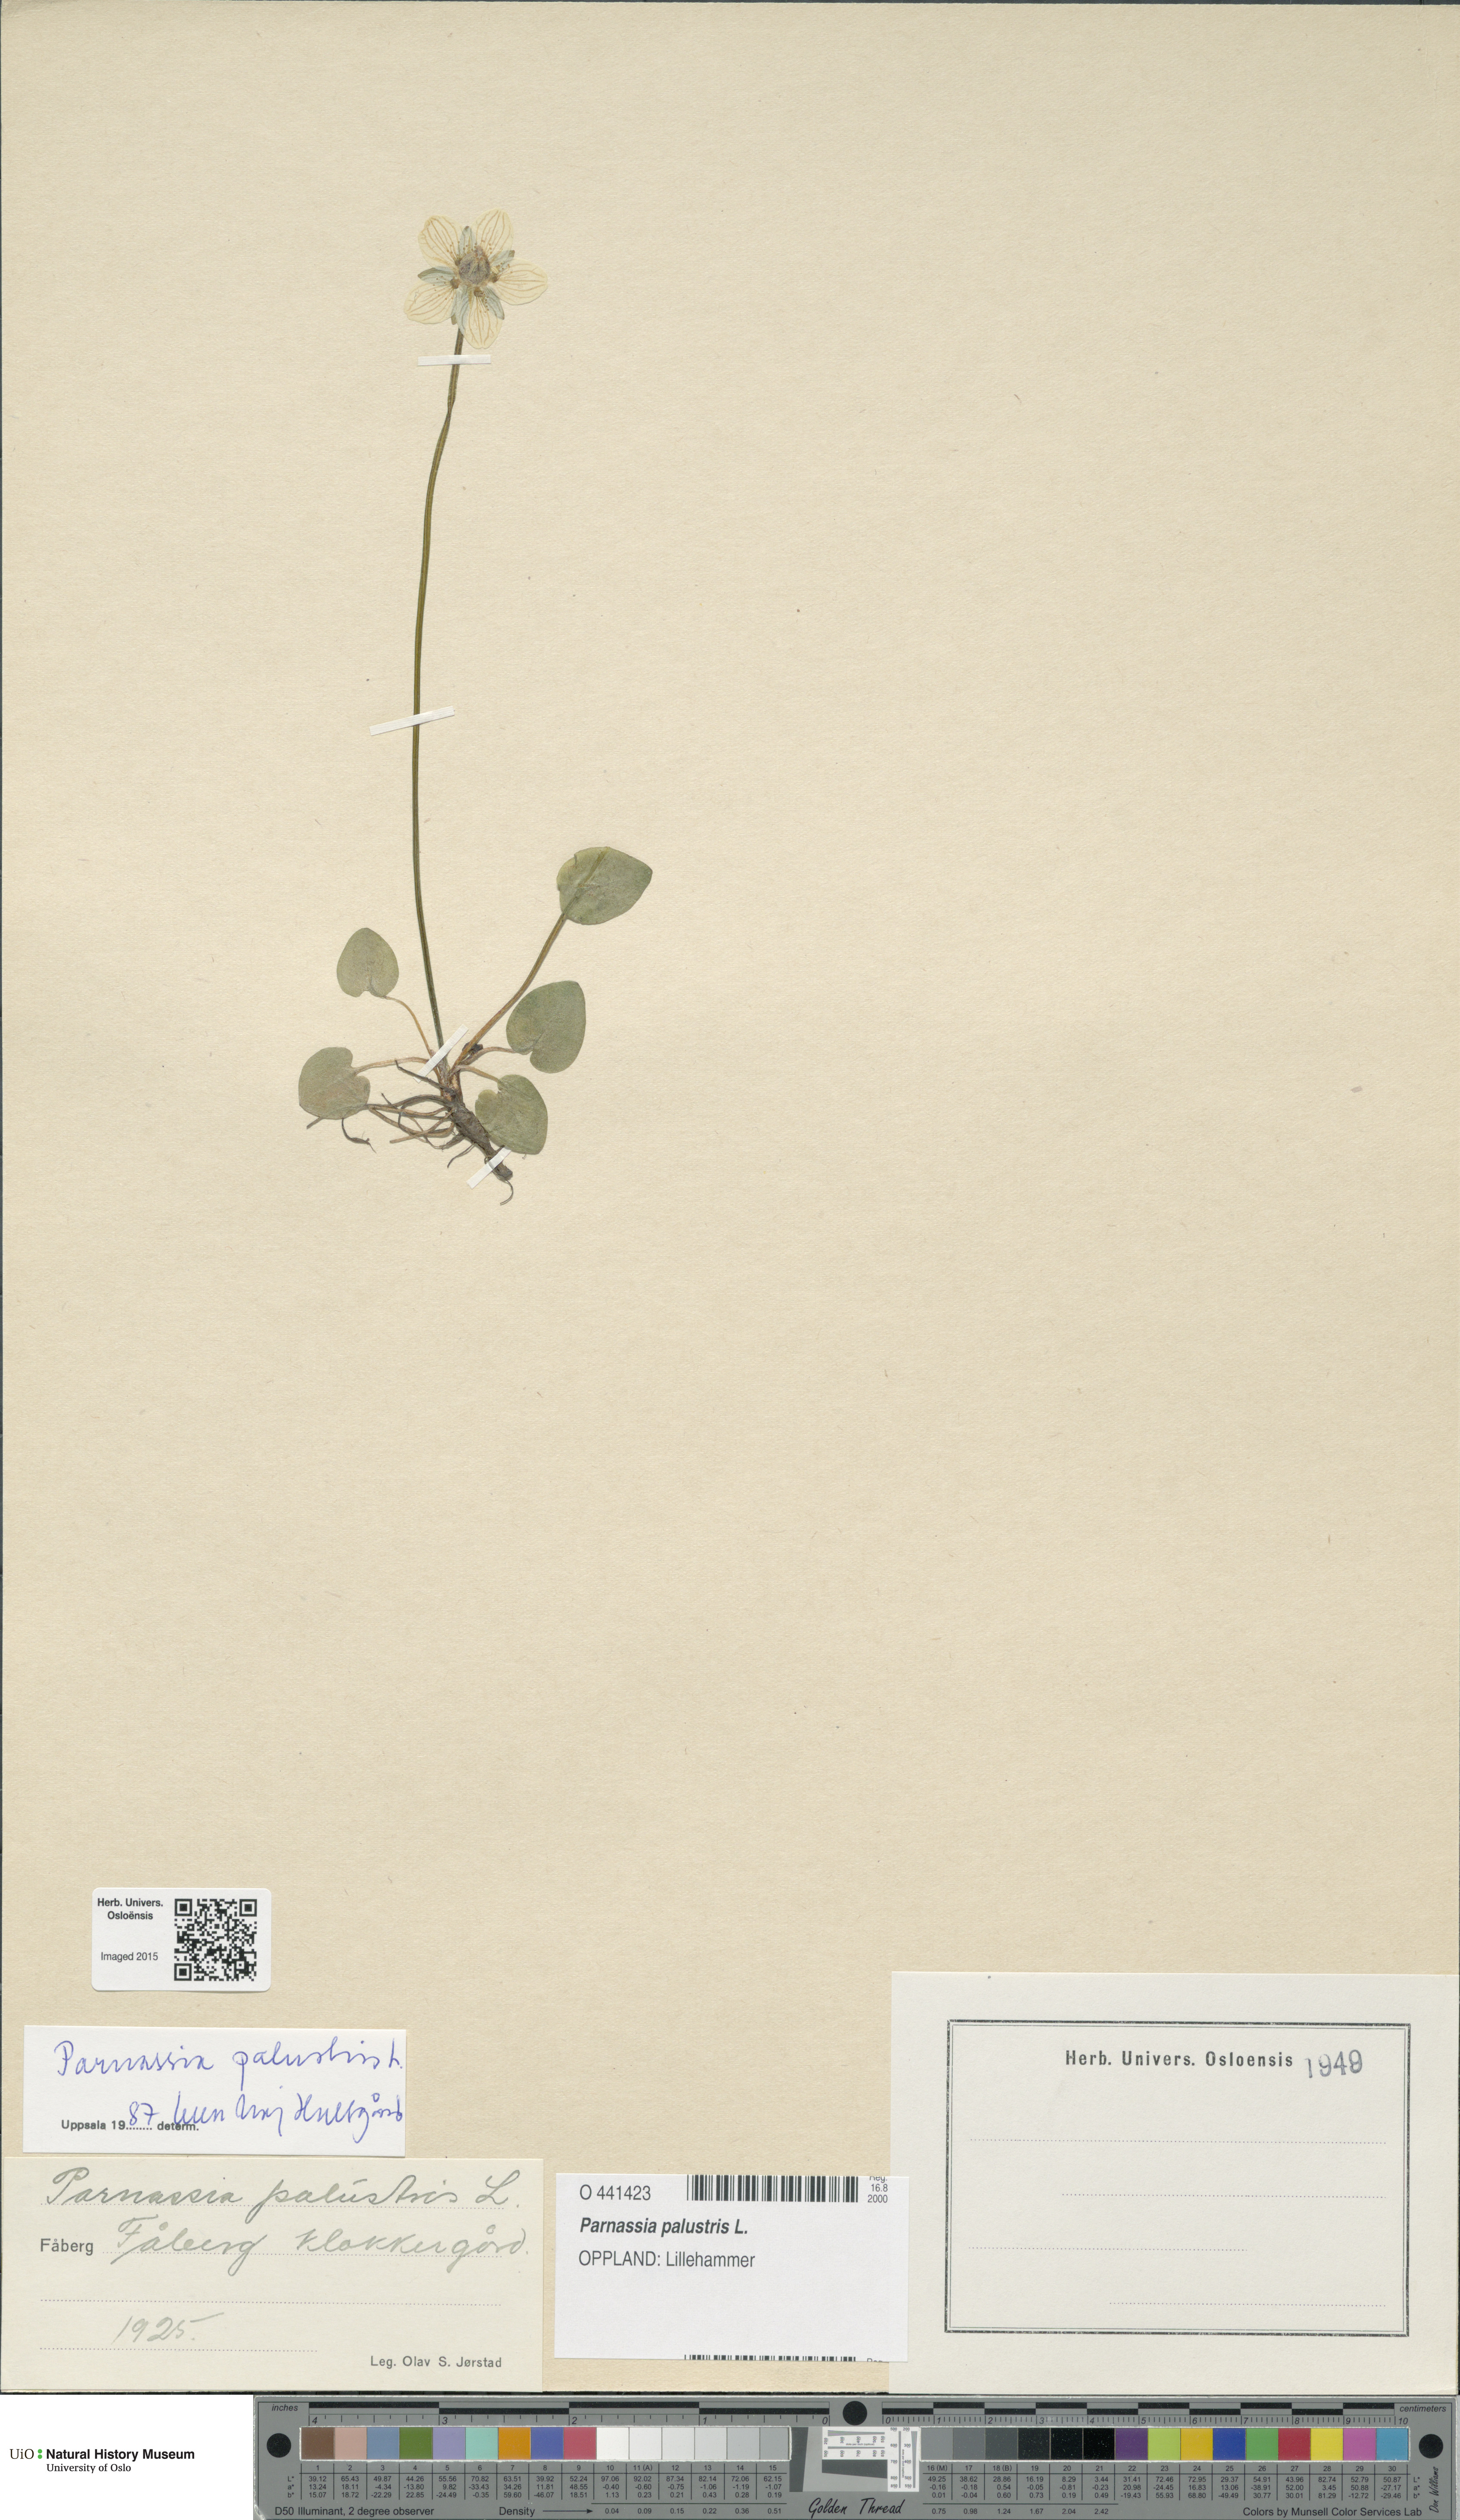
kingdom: Plantae
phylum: Tracheophyta
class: Magnoliopsida
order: Celastrales
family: Parnassiaceae
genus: Parnassia
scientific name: Parnassia palustris
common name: Grass-of-parnassus
